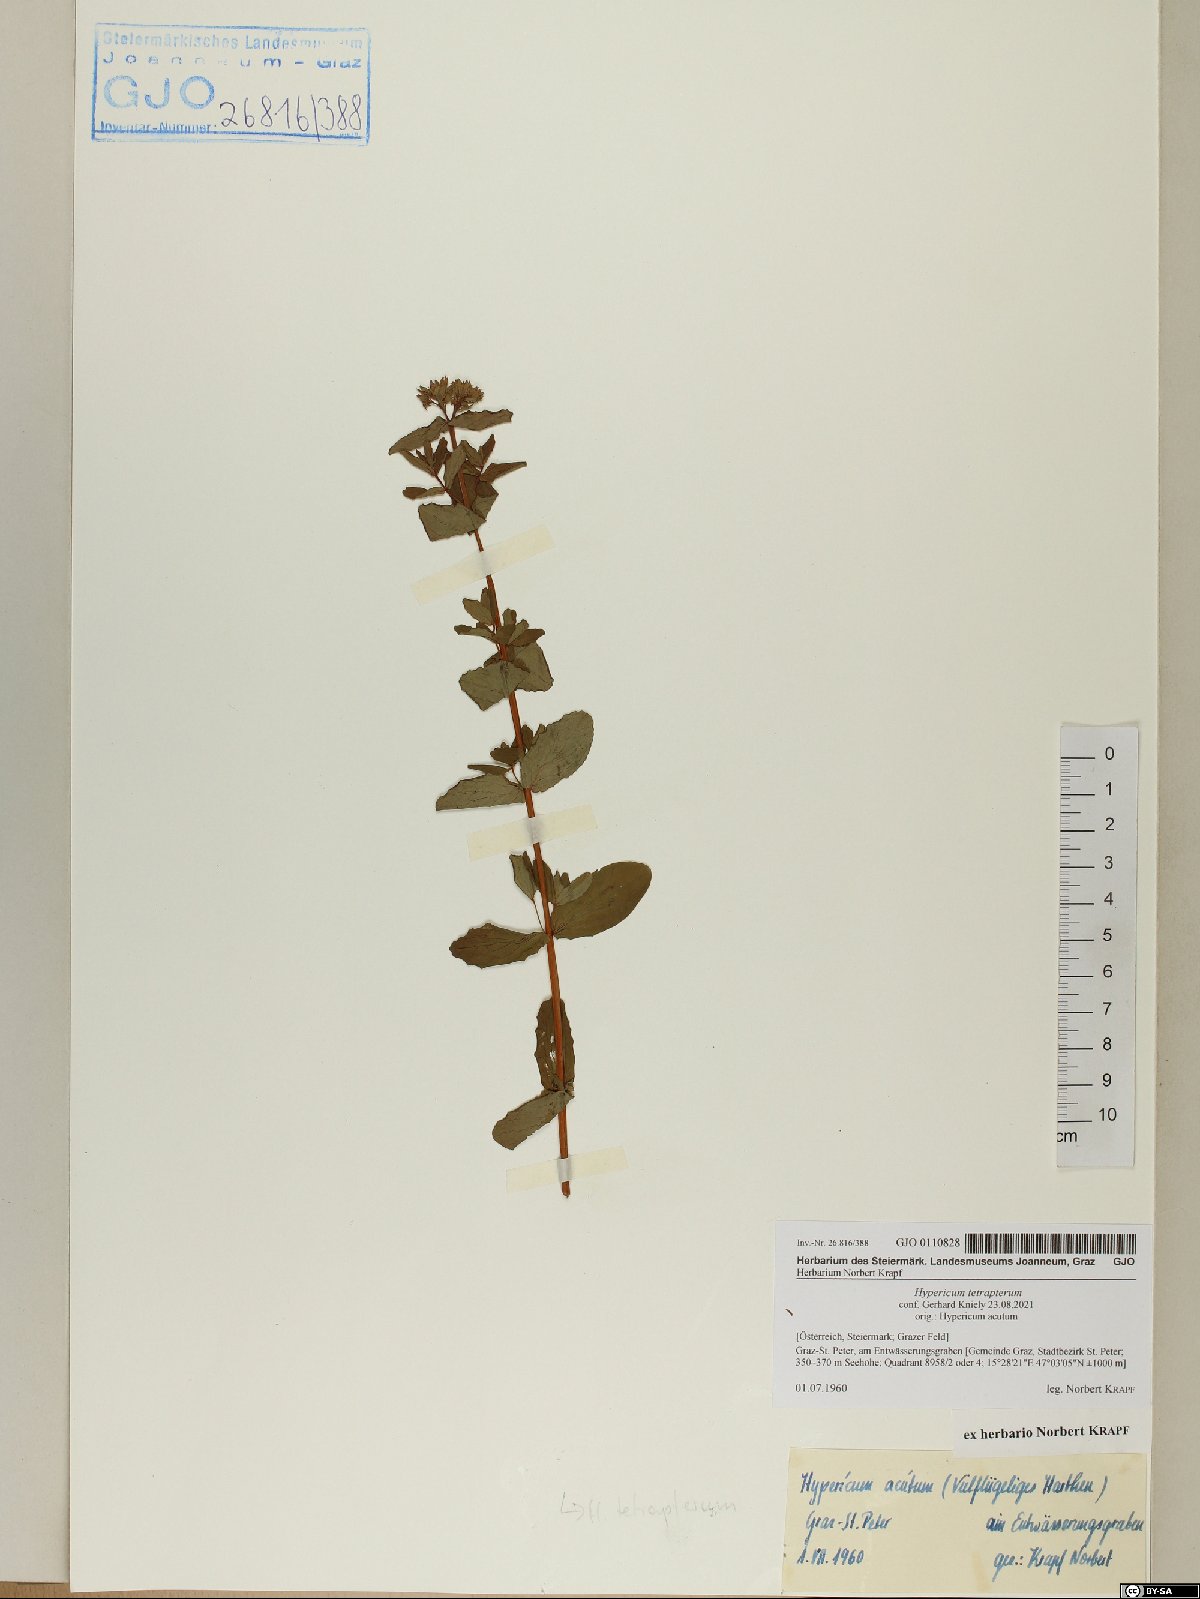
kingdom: Plantae
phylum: Tracheophyta
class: Magnoliopsida
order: Malpighiales
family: Hypericaceae
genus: Hypericum
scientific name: Hypericum tetrapterum
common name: Square-stalked st. john's-wort
